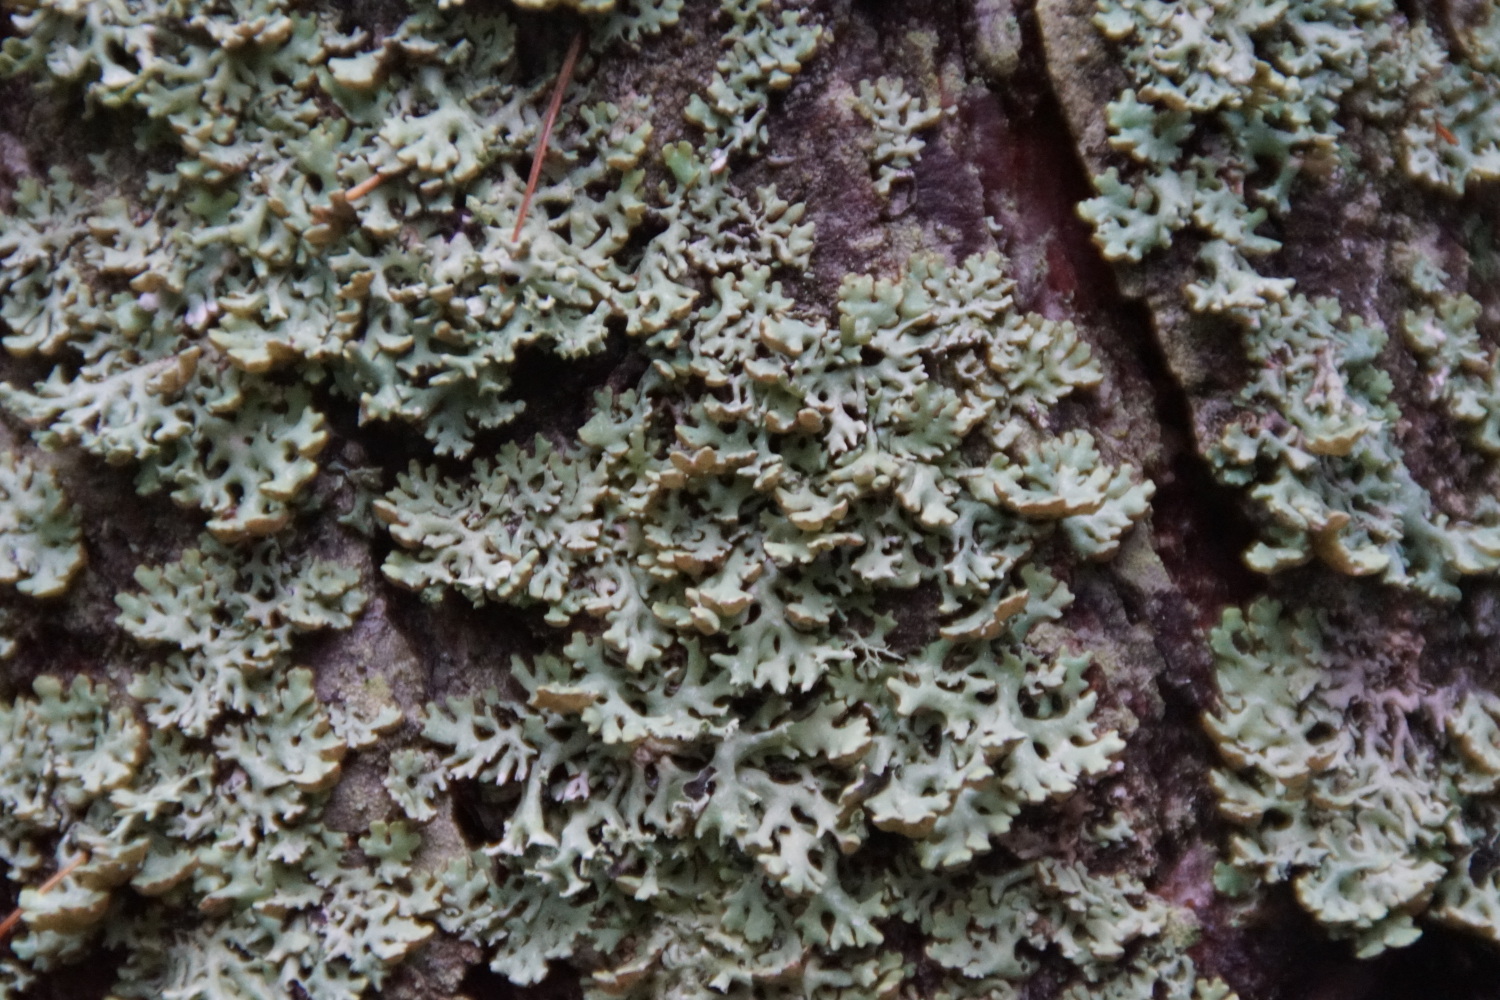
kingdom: Fungi
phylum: Ascomycota
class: Lecanoromycetes
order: Lecanorales
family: Parmeliaceae
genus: Hypogymnia
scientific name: Hypogymnia physodes
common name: almindelig kvistlav
